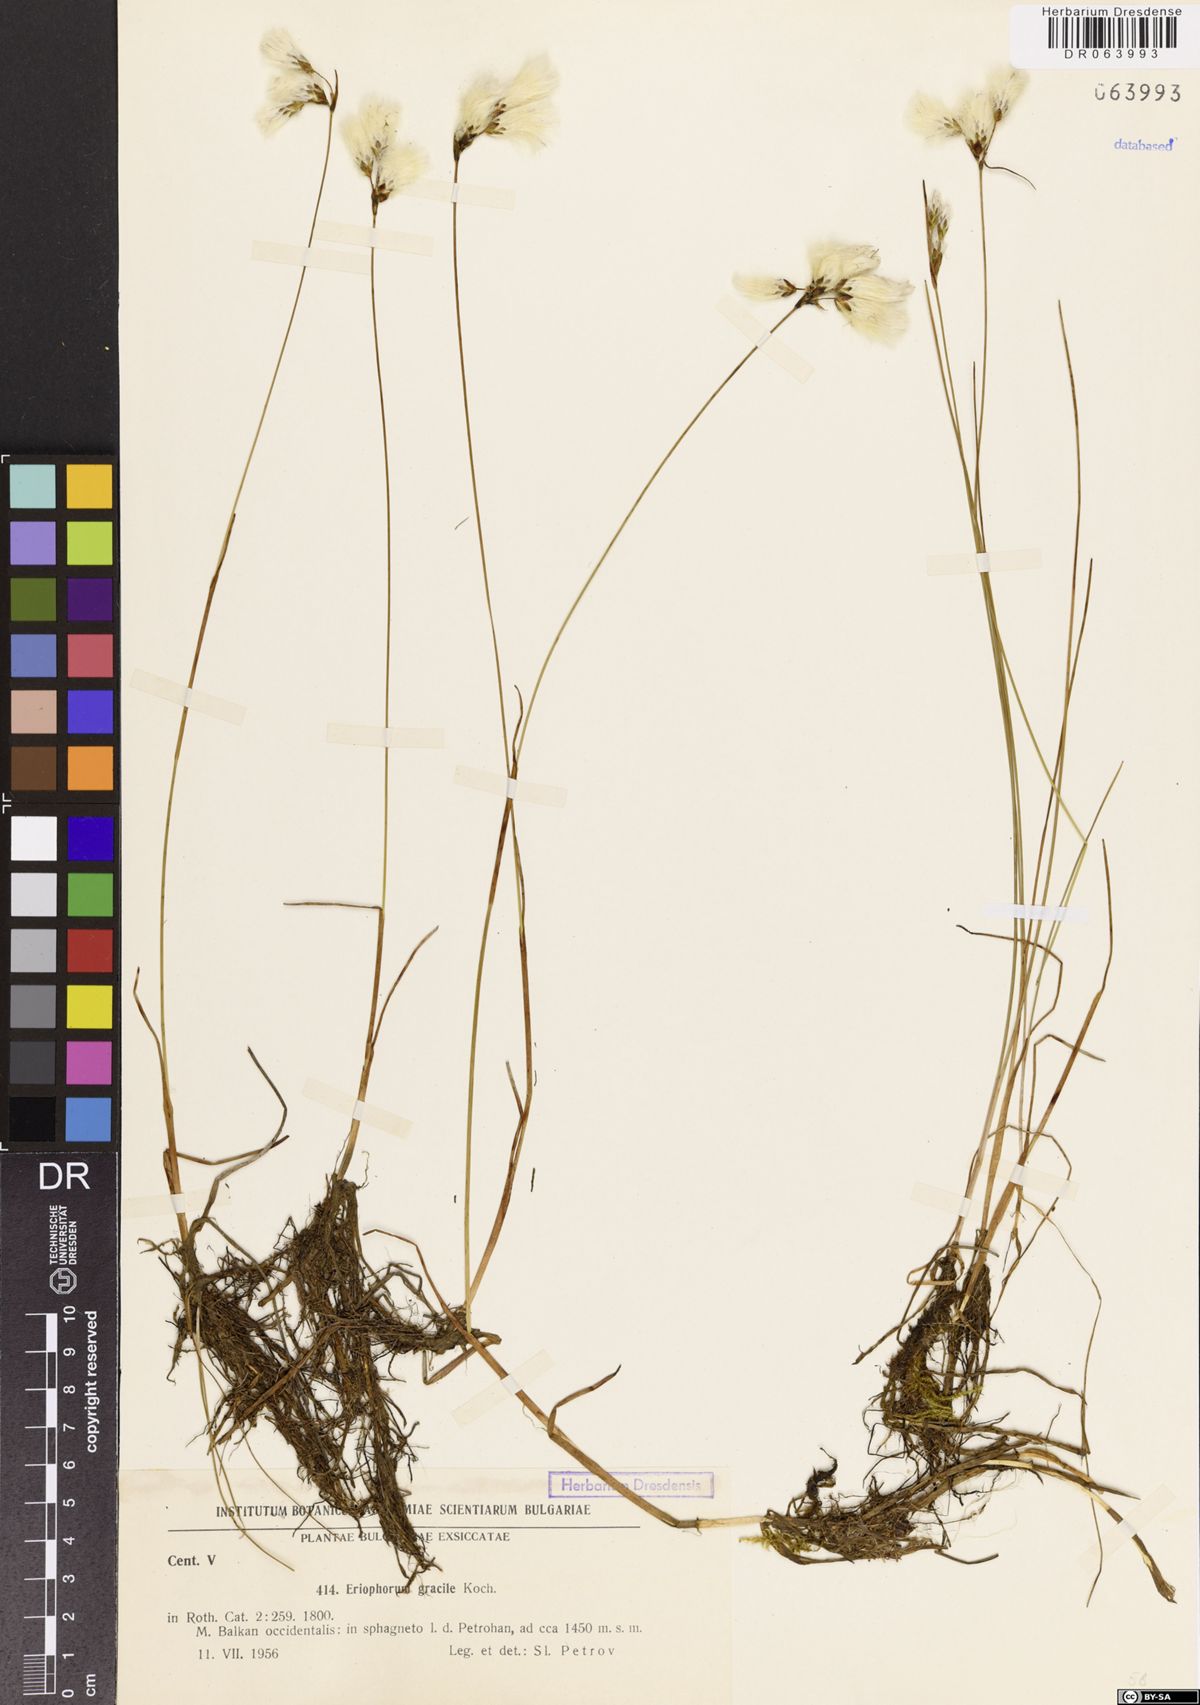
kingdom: Plantae
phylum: Tracheophyta
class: Liliopsida
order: Poales
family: Cyperaceae
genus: Eriophorum
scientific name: Eriophorum gracile
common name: Slender cottongrass
